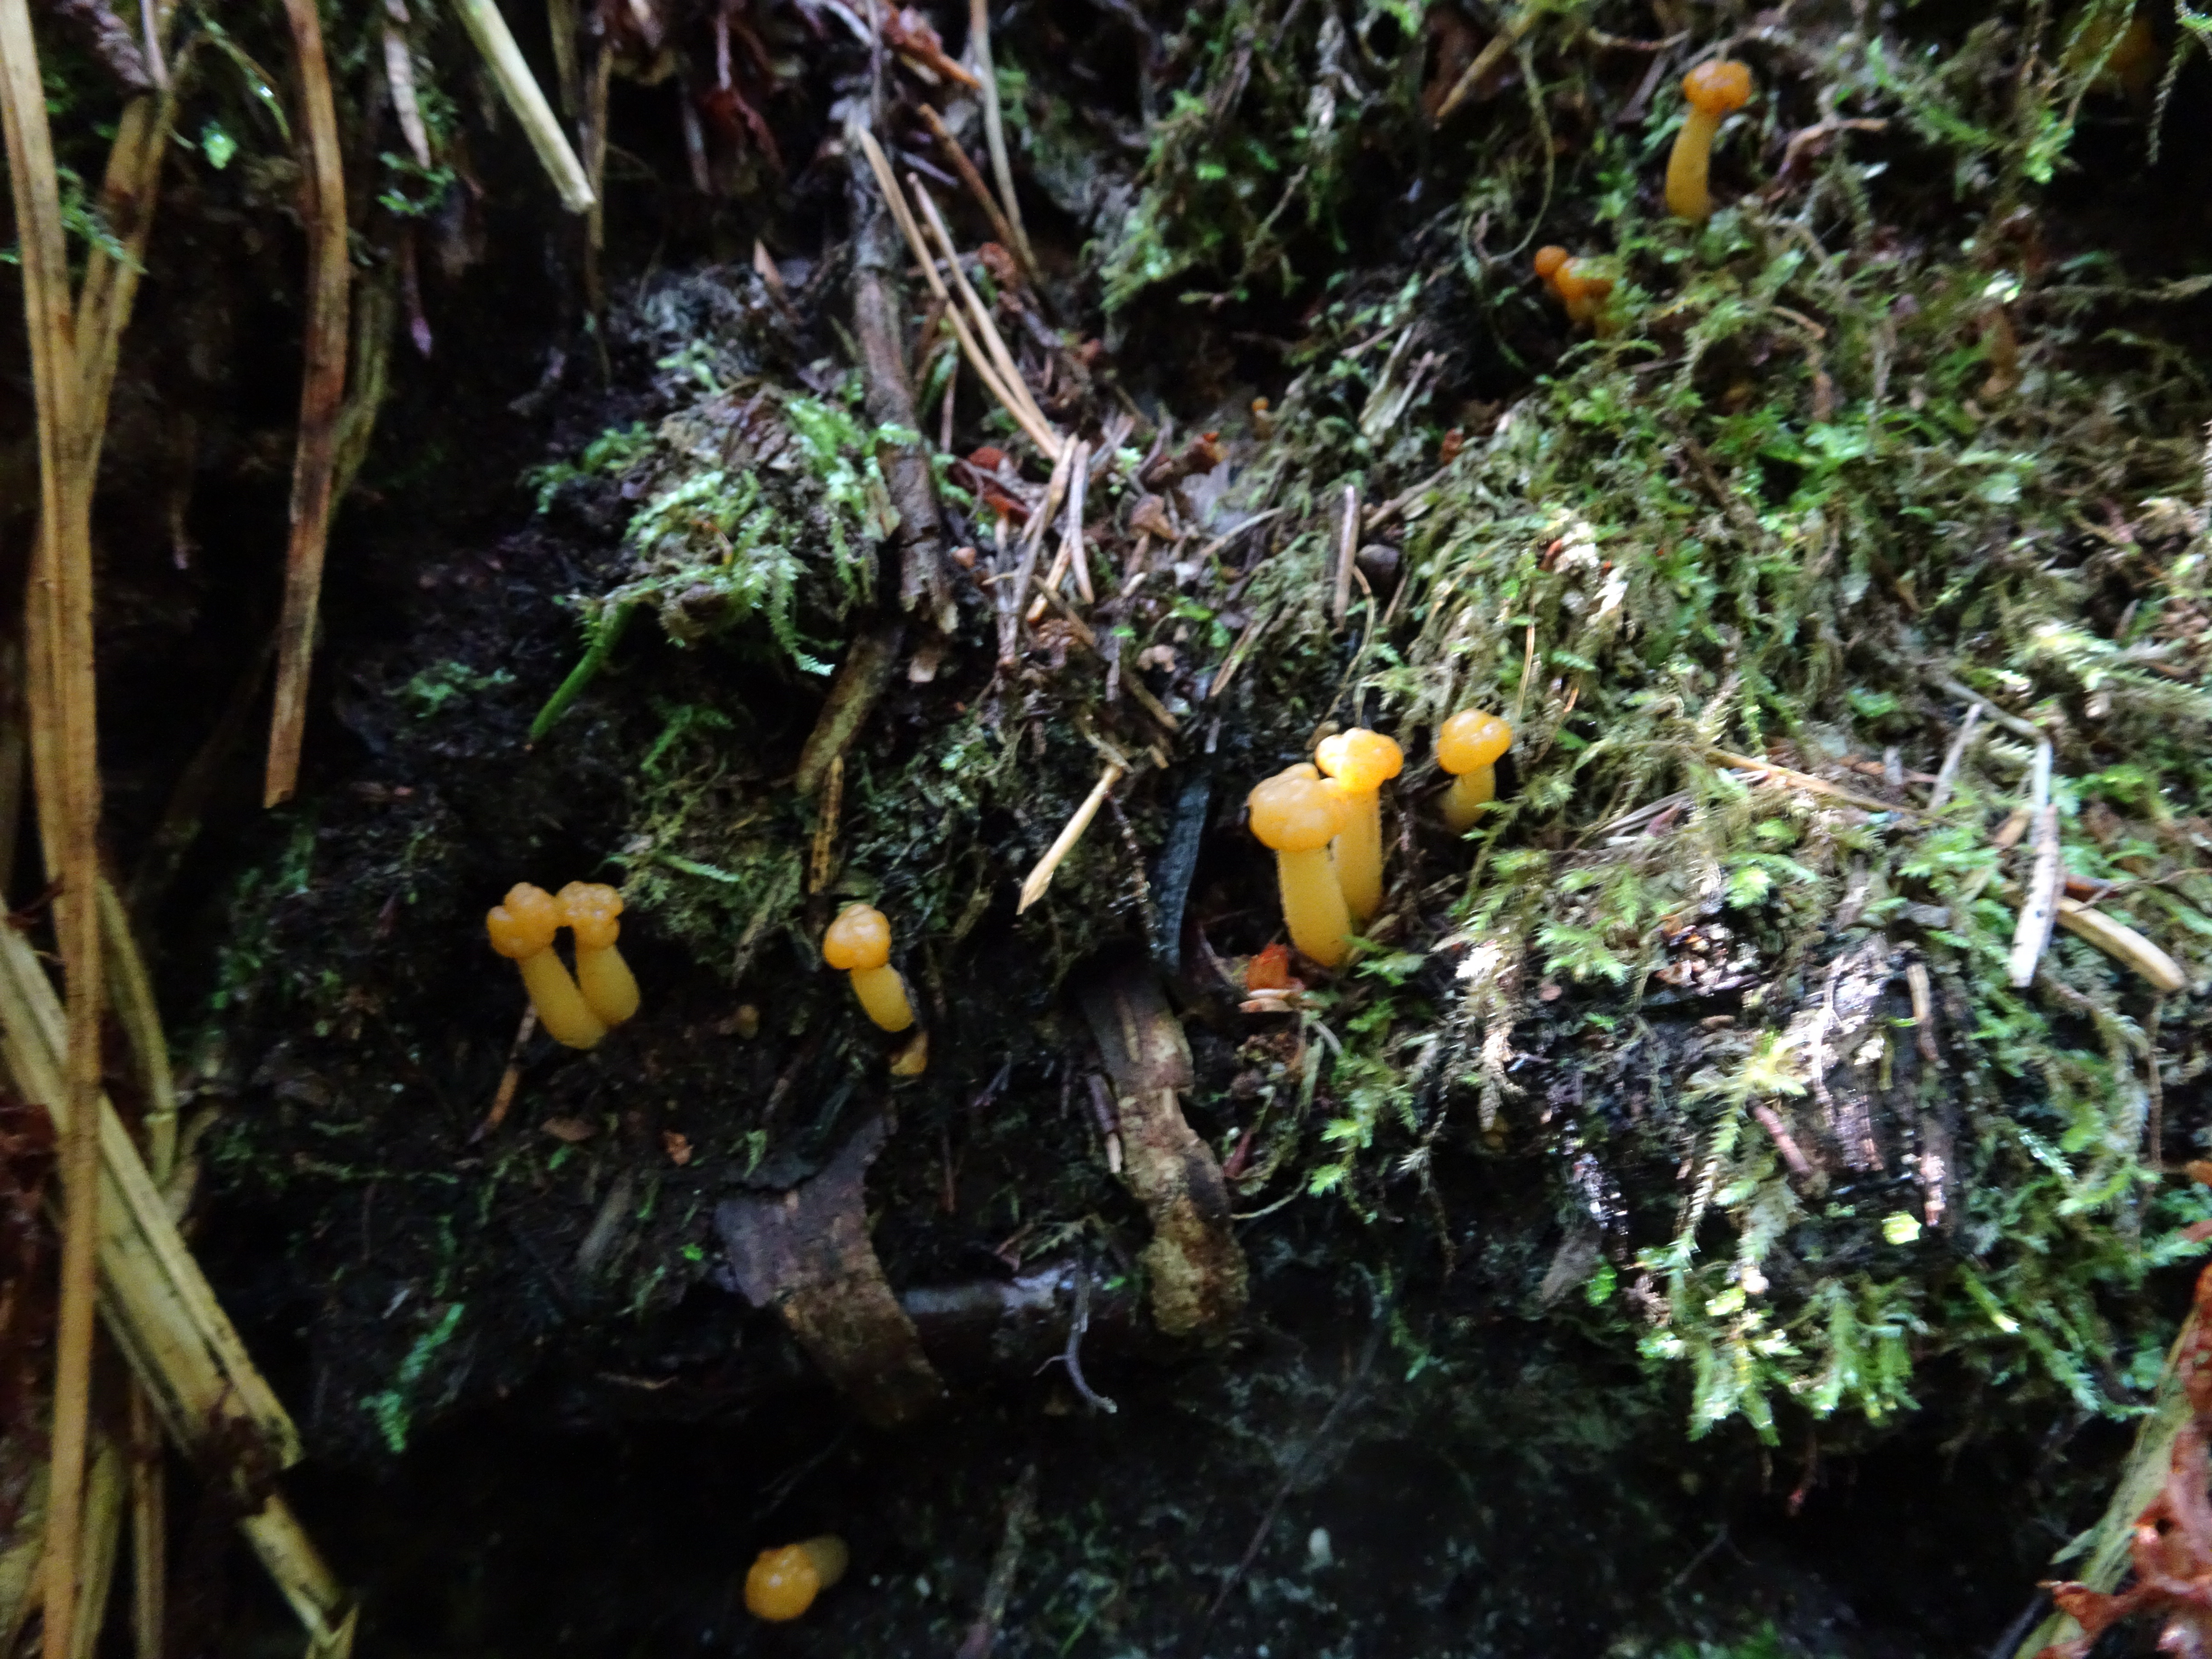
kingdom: Fungi
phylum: Ascomycota
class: Leotiomycetes
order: Leotiales
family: Leotiaceae
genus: Leotia
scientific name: Leotia lubrica
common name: Jellybaby
